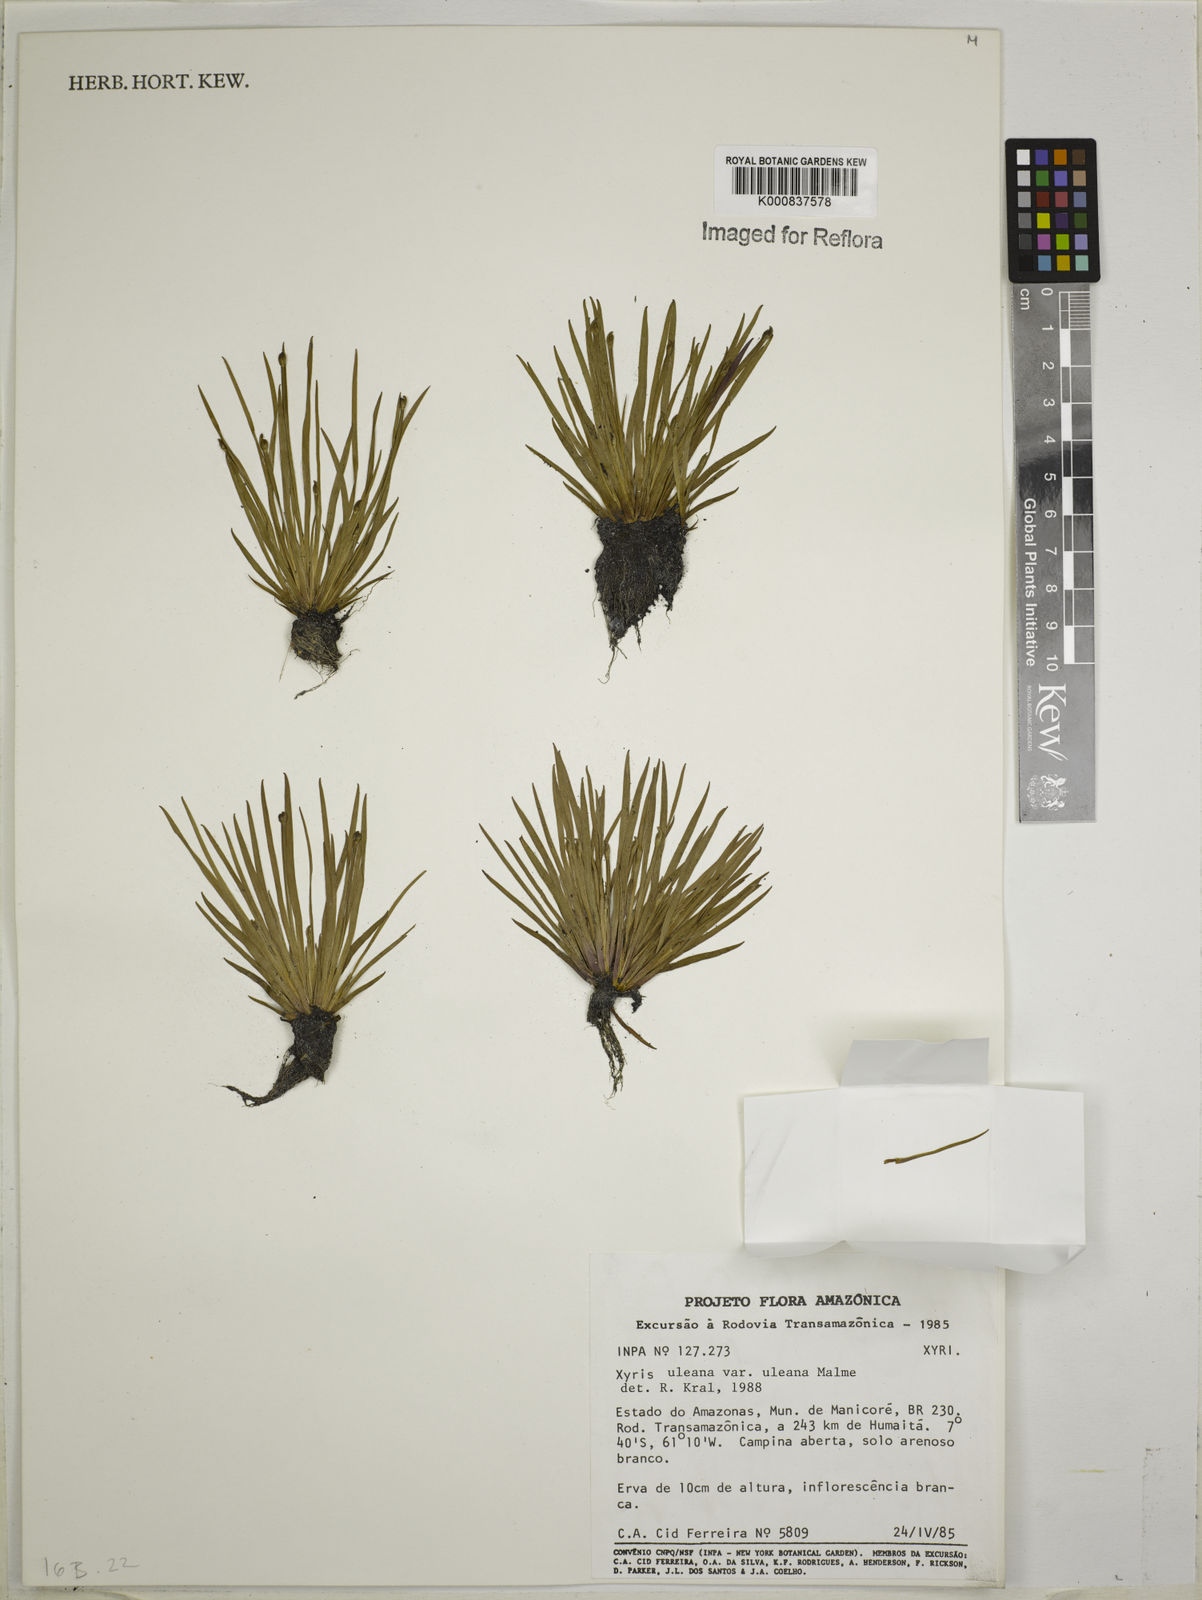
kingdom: Plantae
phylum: Tracheophyta
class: Liliopsida
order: Poales
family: Xyridaceae
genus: Xyris
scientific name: Xyris uleana
